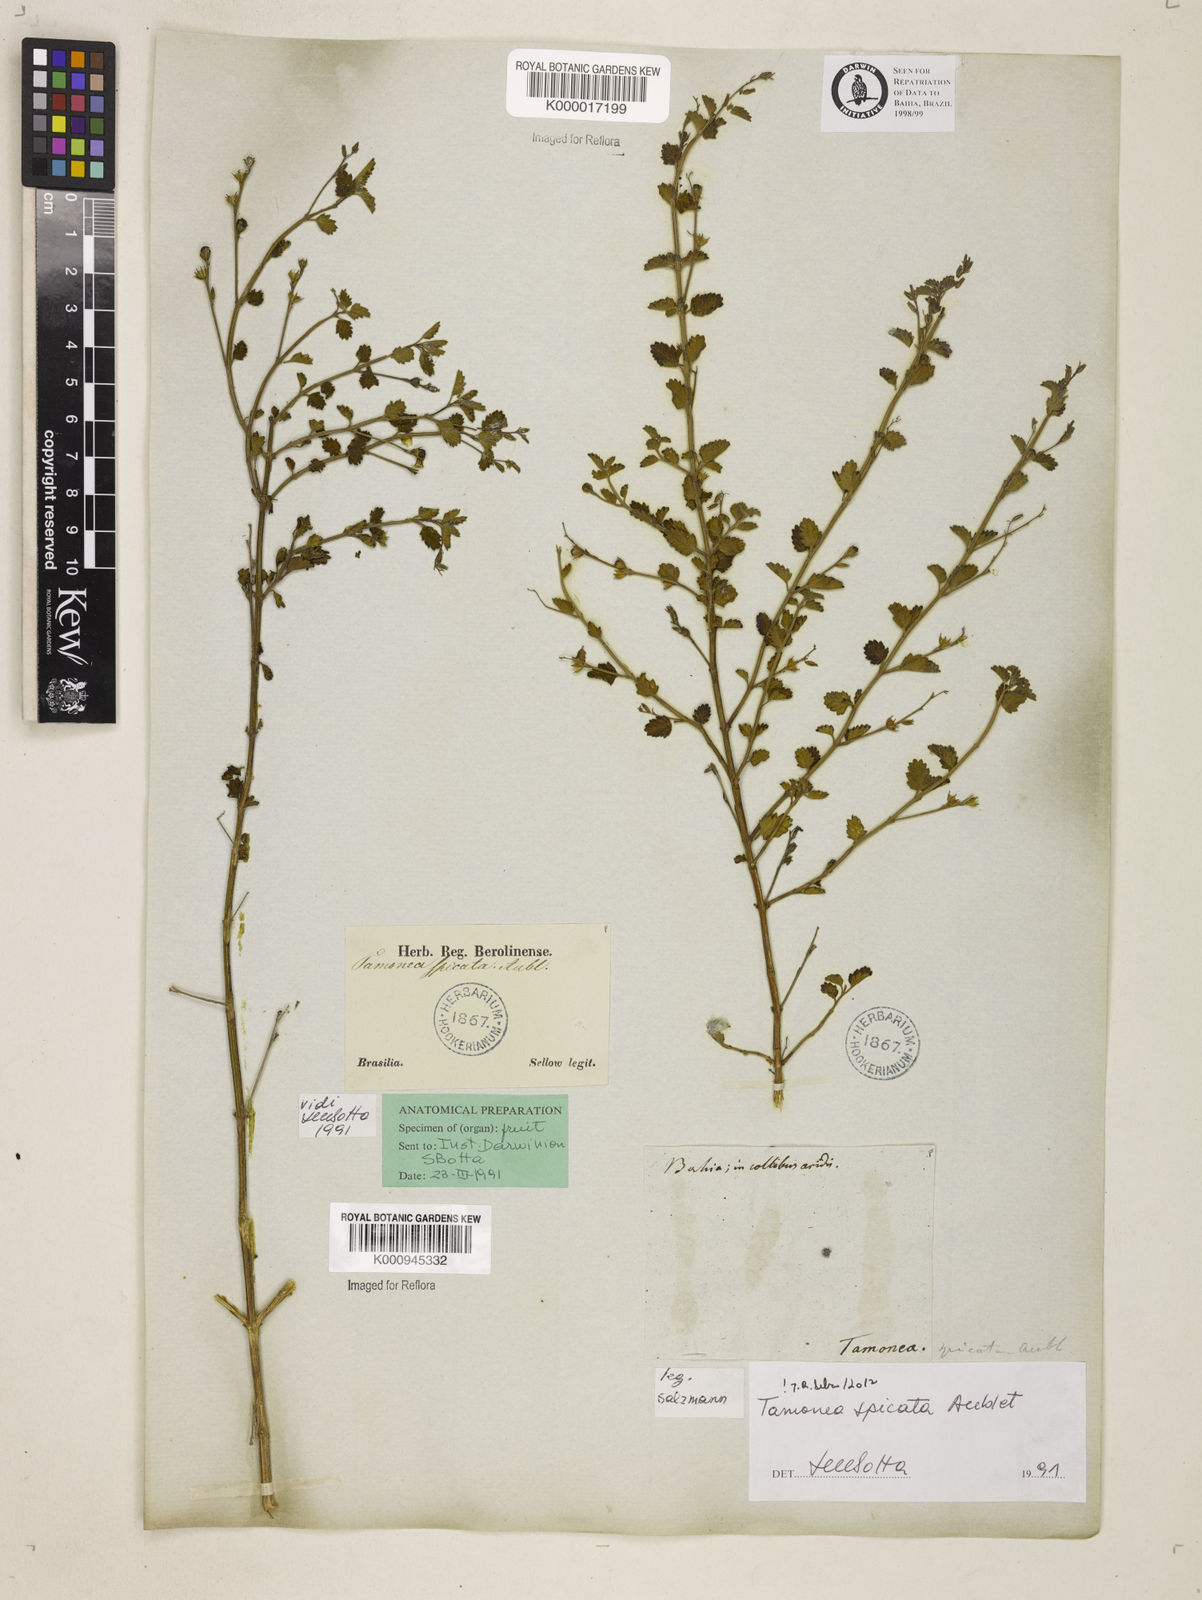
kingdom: Plantae
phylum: Tracheophyta
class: Magnoliopsida
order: Lamiales
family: Verbenaceae
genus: Tamonea
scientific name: Tamonea spicata
